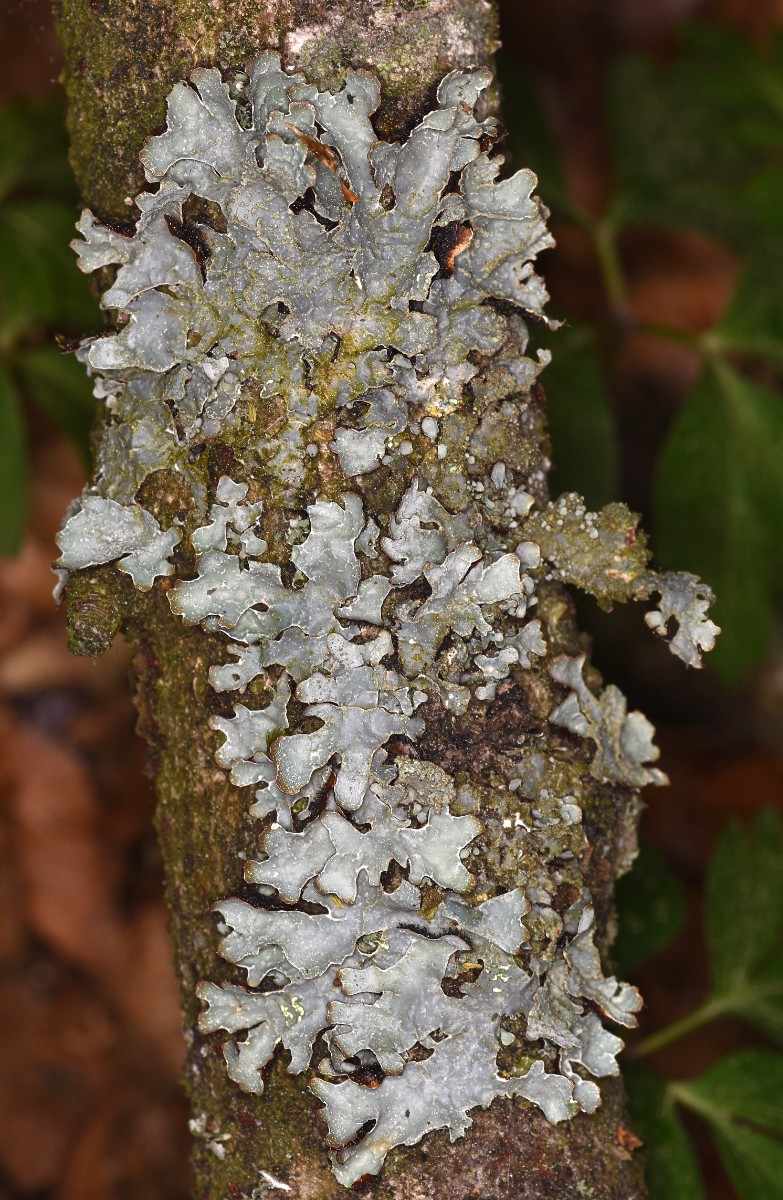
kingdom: Fungi
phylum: Ascomycota
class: Lecanoromycetes
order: Lecanorales
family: Parmeliaceae
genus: Parmelia
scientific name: Parmelia sulcata
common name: rynket skållav
